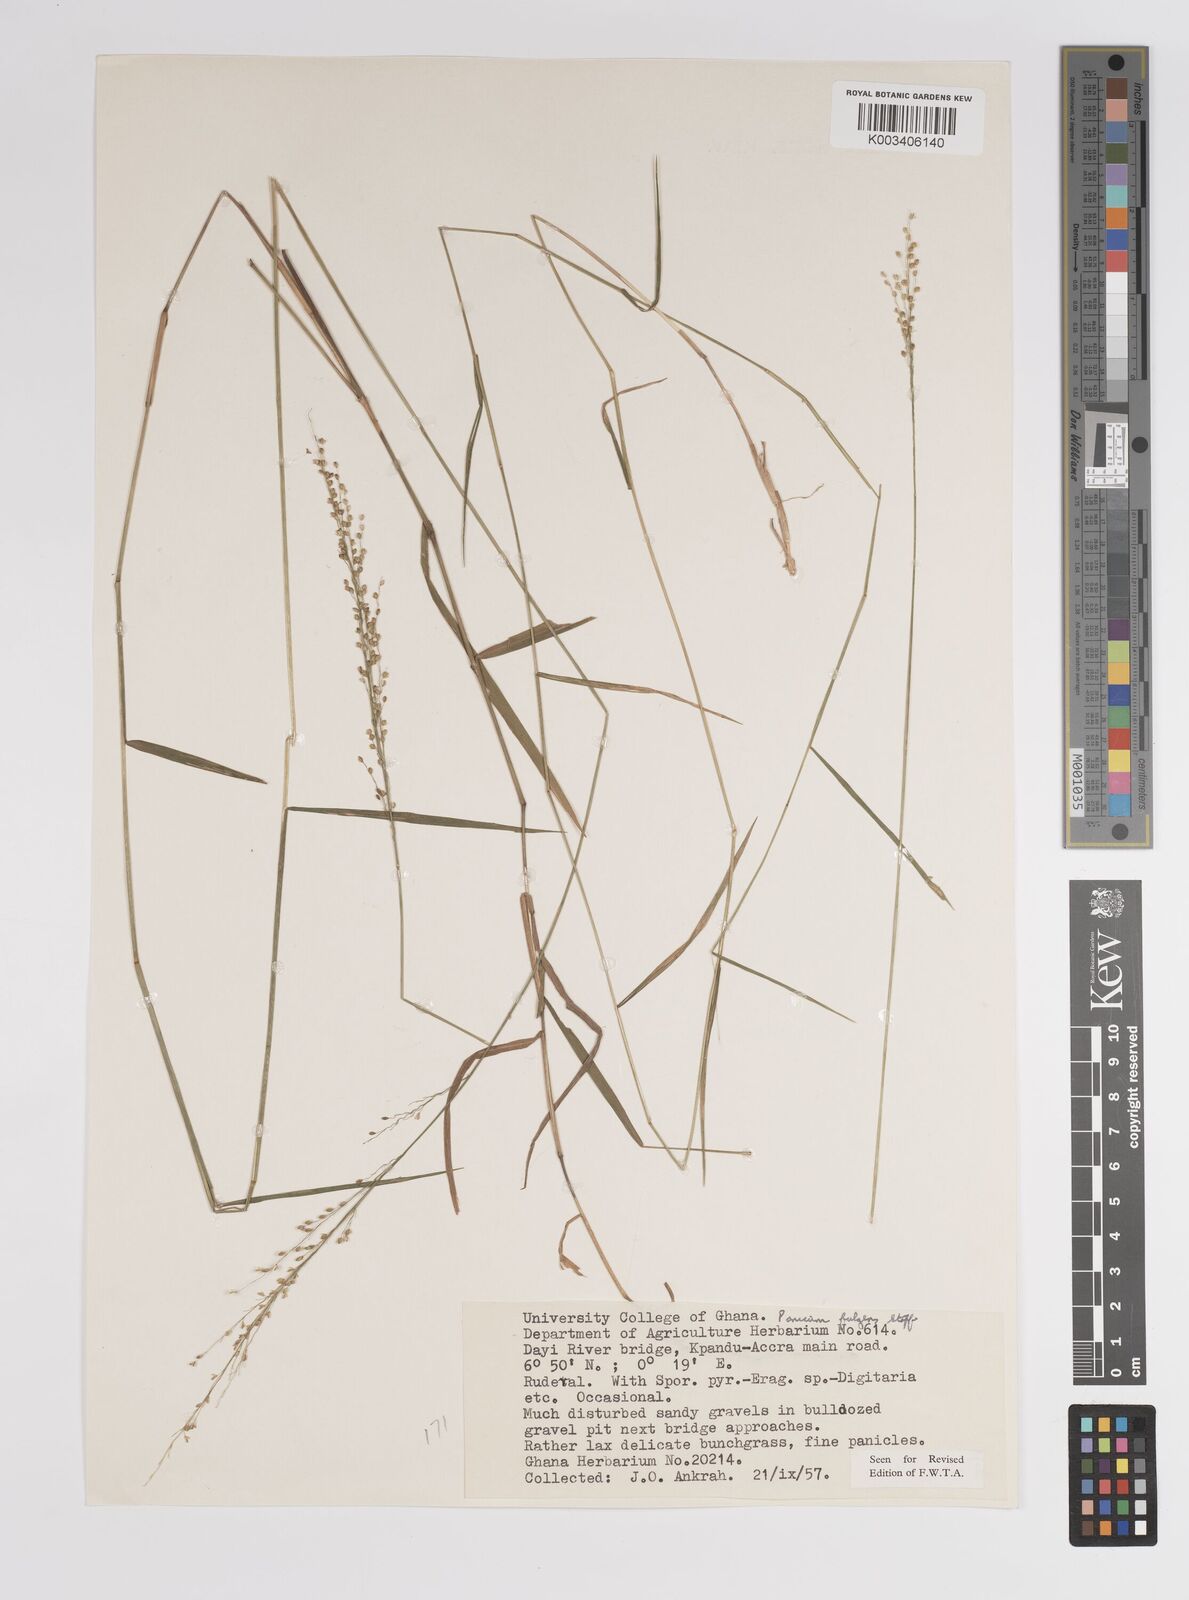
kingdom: Plantae
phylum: Tracheophyta
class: Liliopsida
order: Poales
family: Poaceae
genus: Trichanthecium
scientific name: Trichanthecium nervatum
